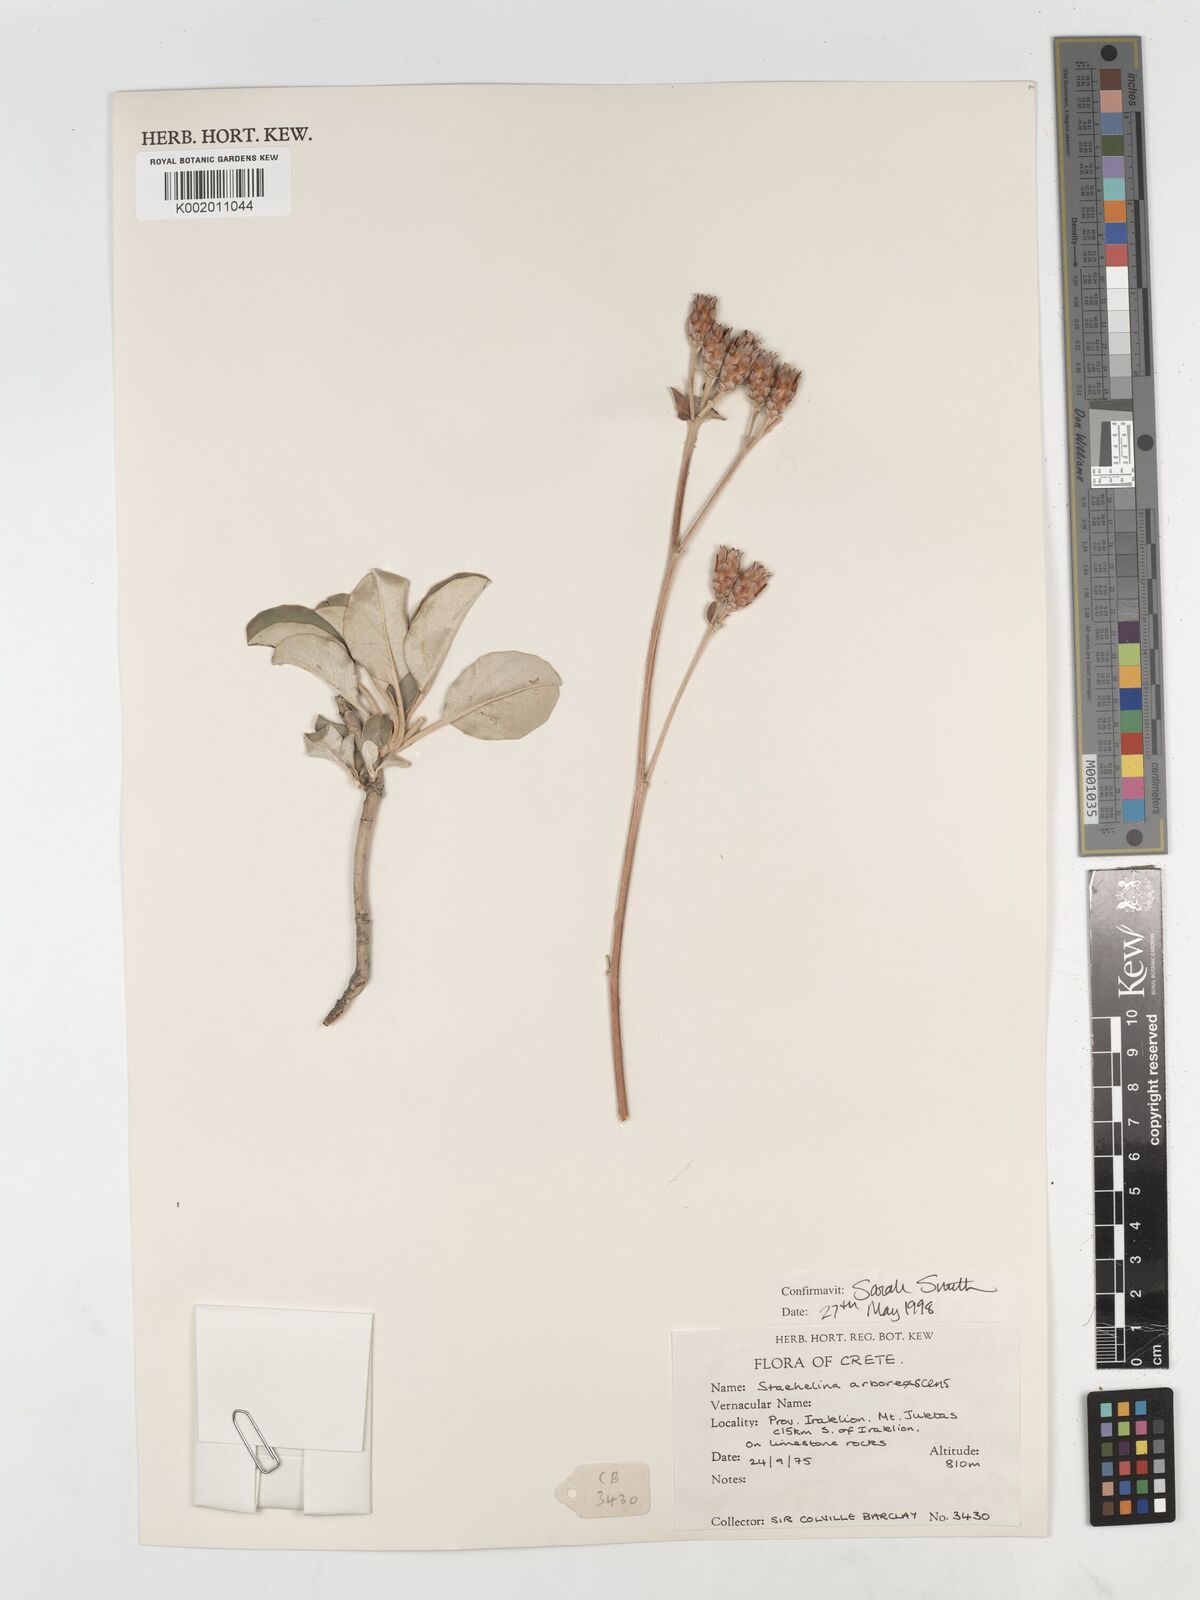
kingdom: Plantae
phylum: Tracheophyta
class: Magnoliopsida
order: Asterales
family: Asteraceae
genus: Staehelina
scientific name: Staehelina petiolata
